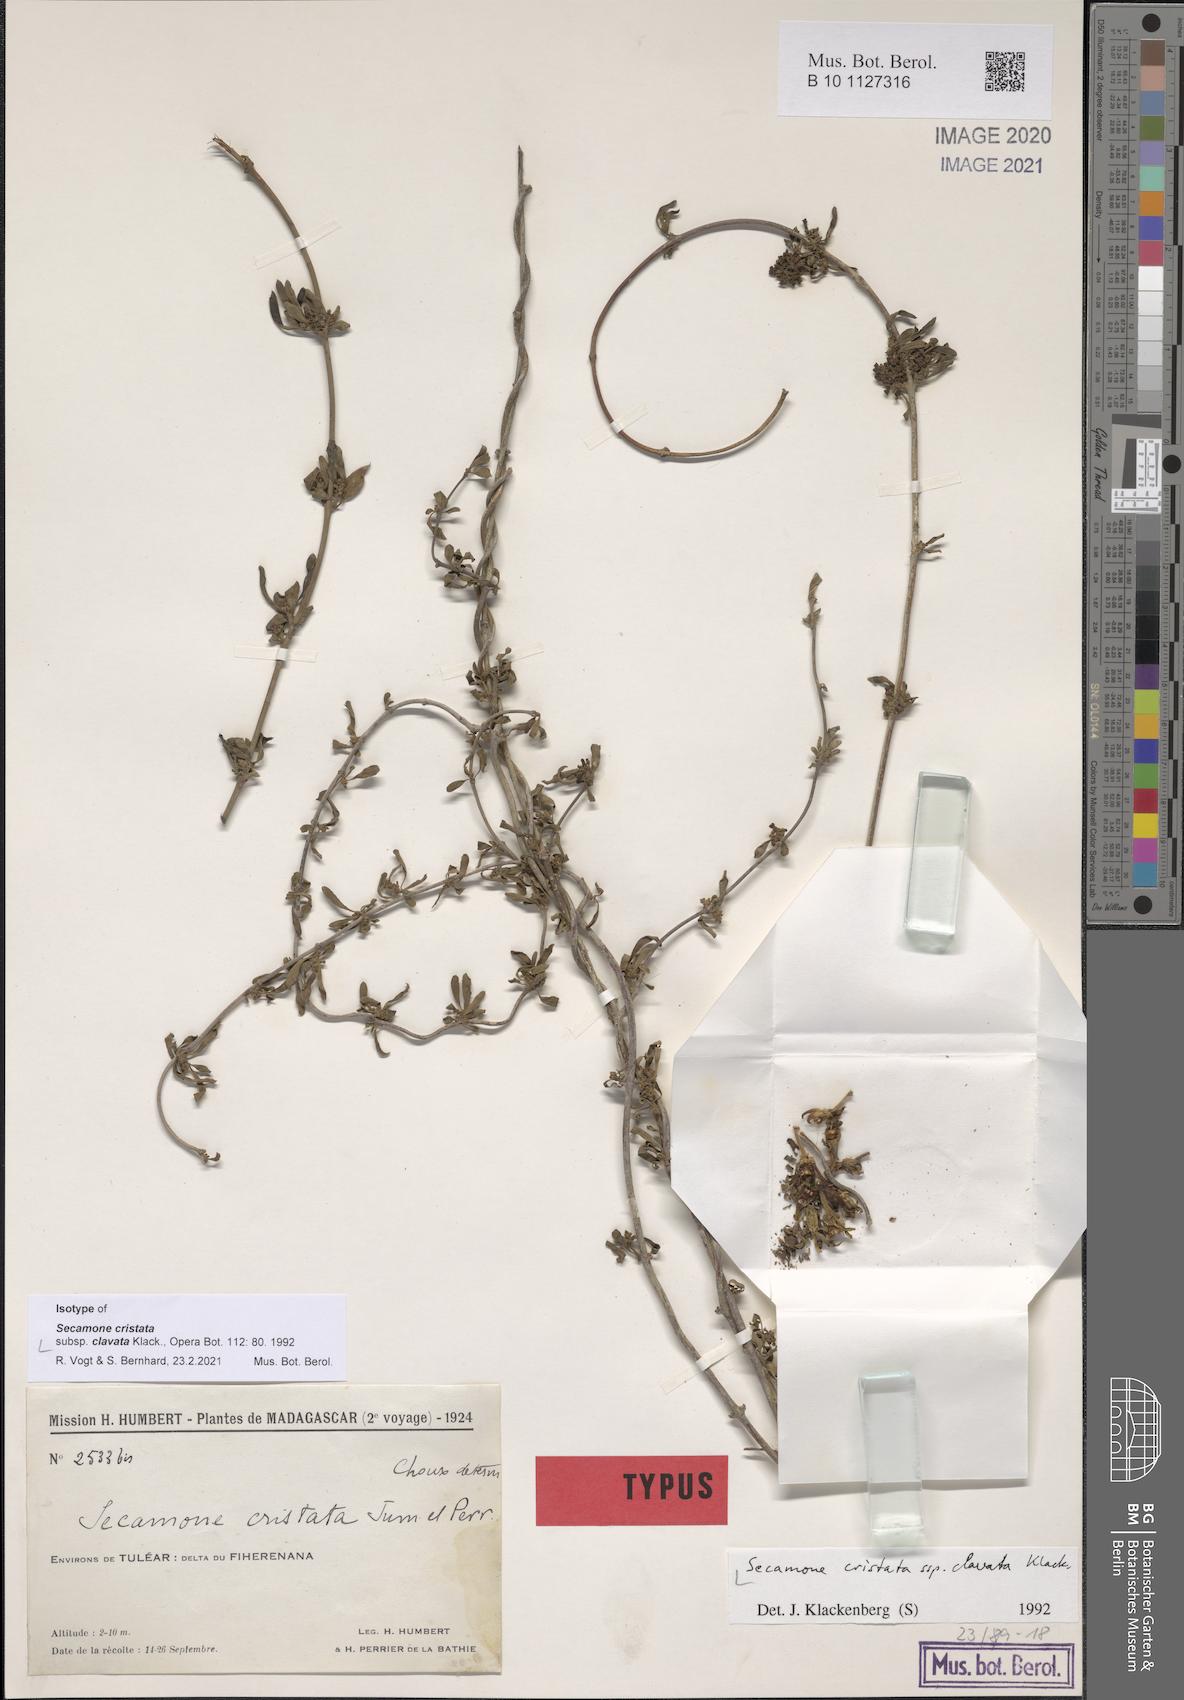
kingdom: Plantae
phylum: Tracheophyta
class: Magnoliopsida
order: Gentianales
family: Apocynaceae
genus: Secamone
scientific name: Secamone cristata
